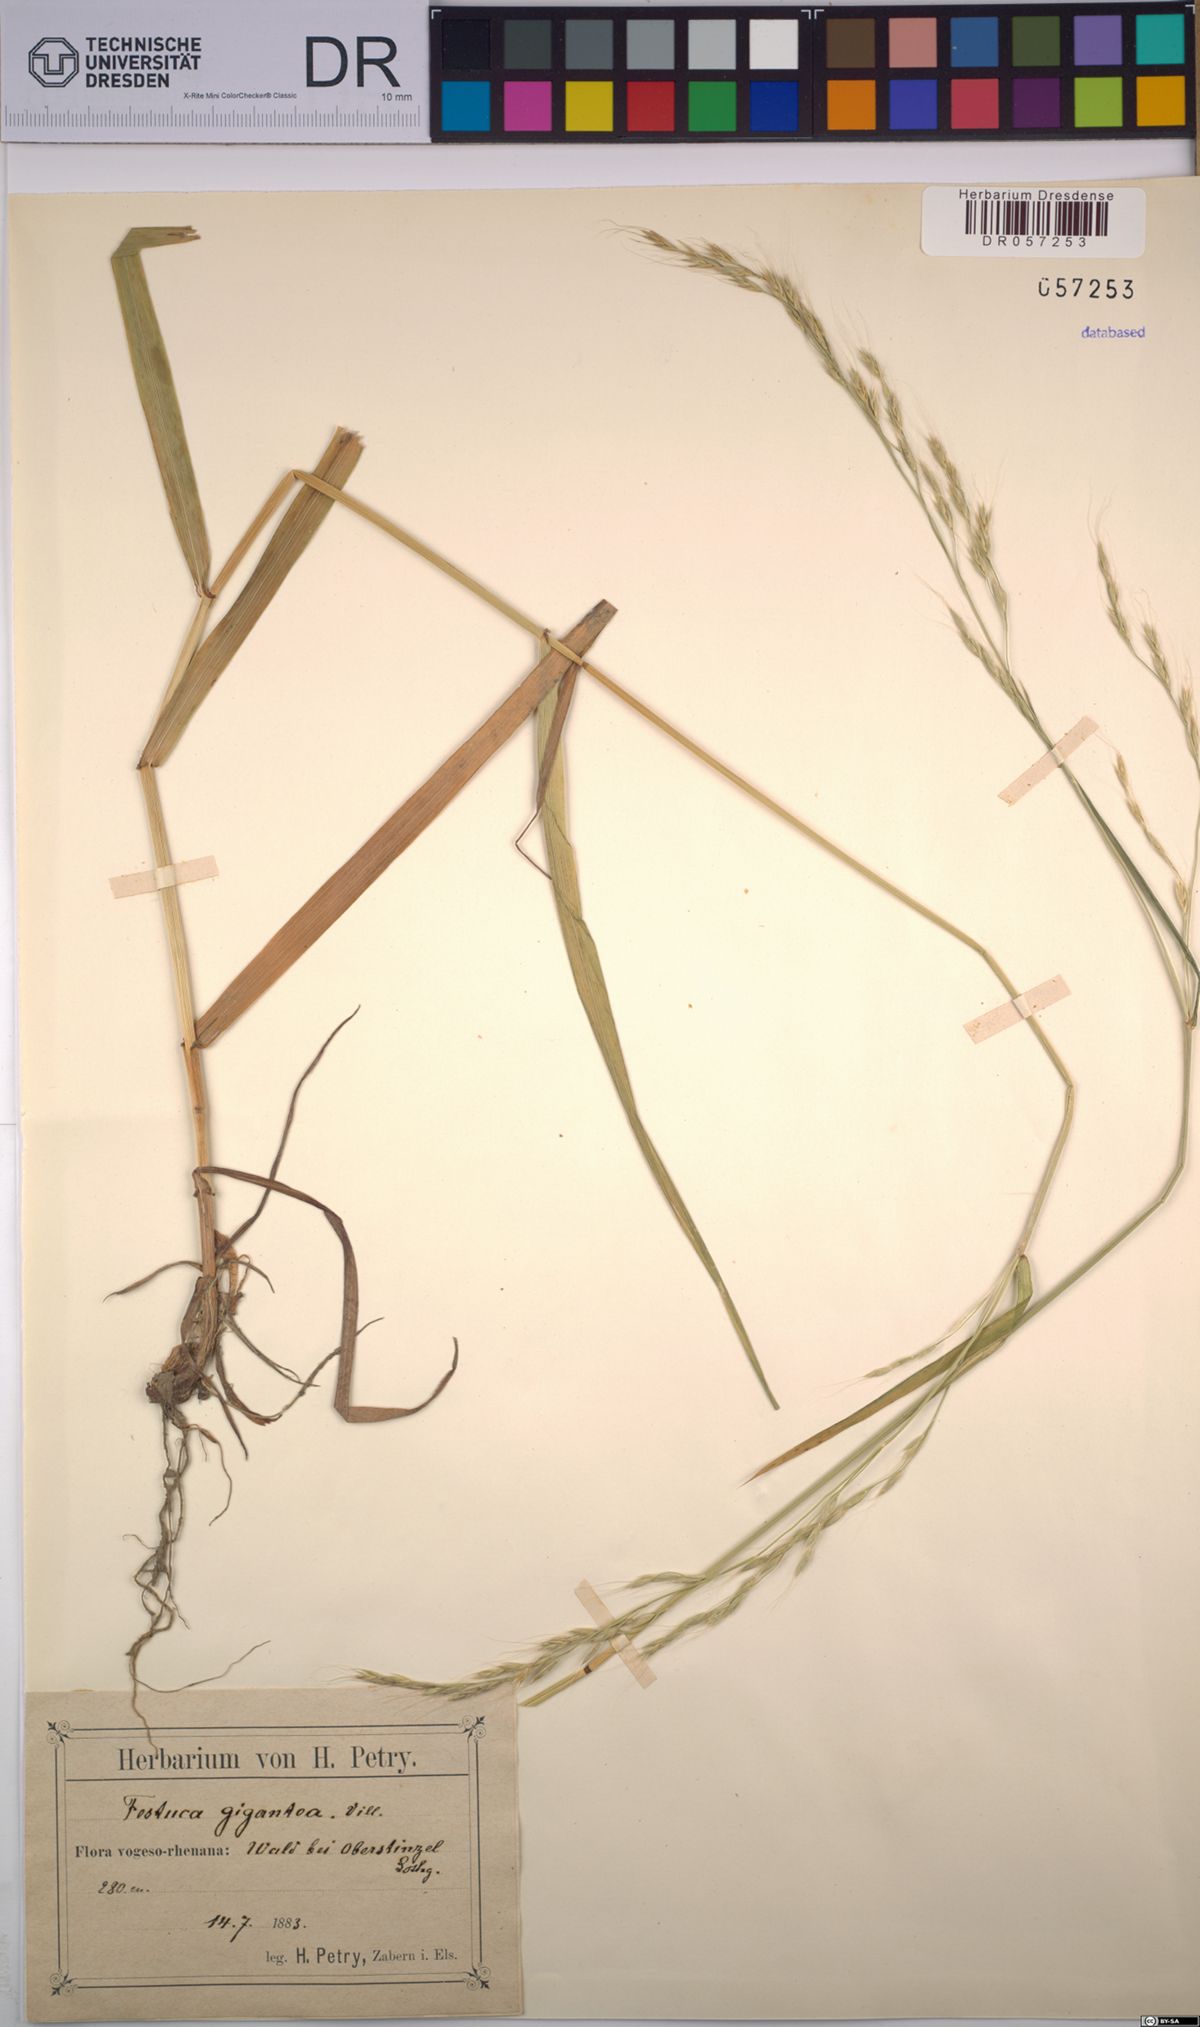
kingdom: Plantae
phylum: Tracheophyta
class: Liliopsida
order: Poales
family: Poaceae
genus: Lolium
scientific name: Lolium giganteum
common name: Giant fescue
